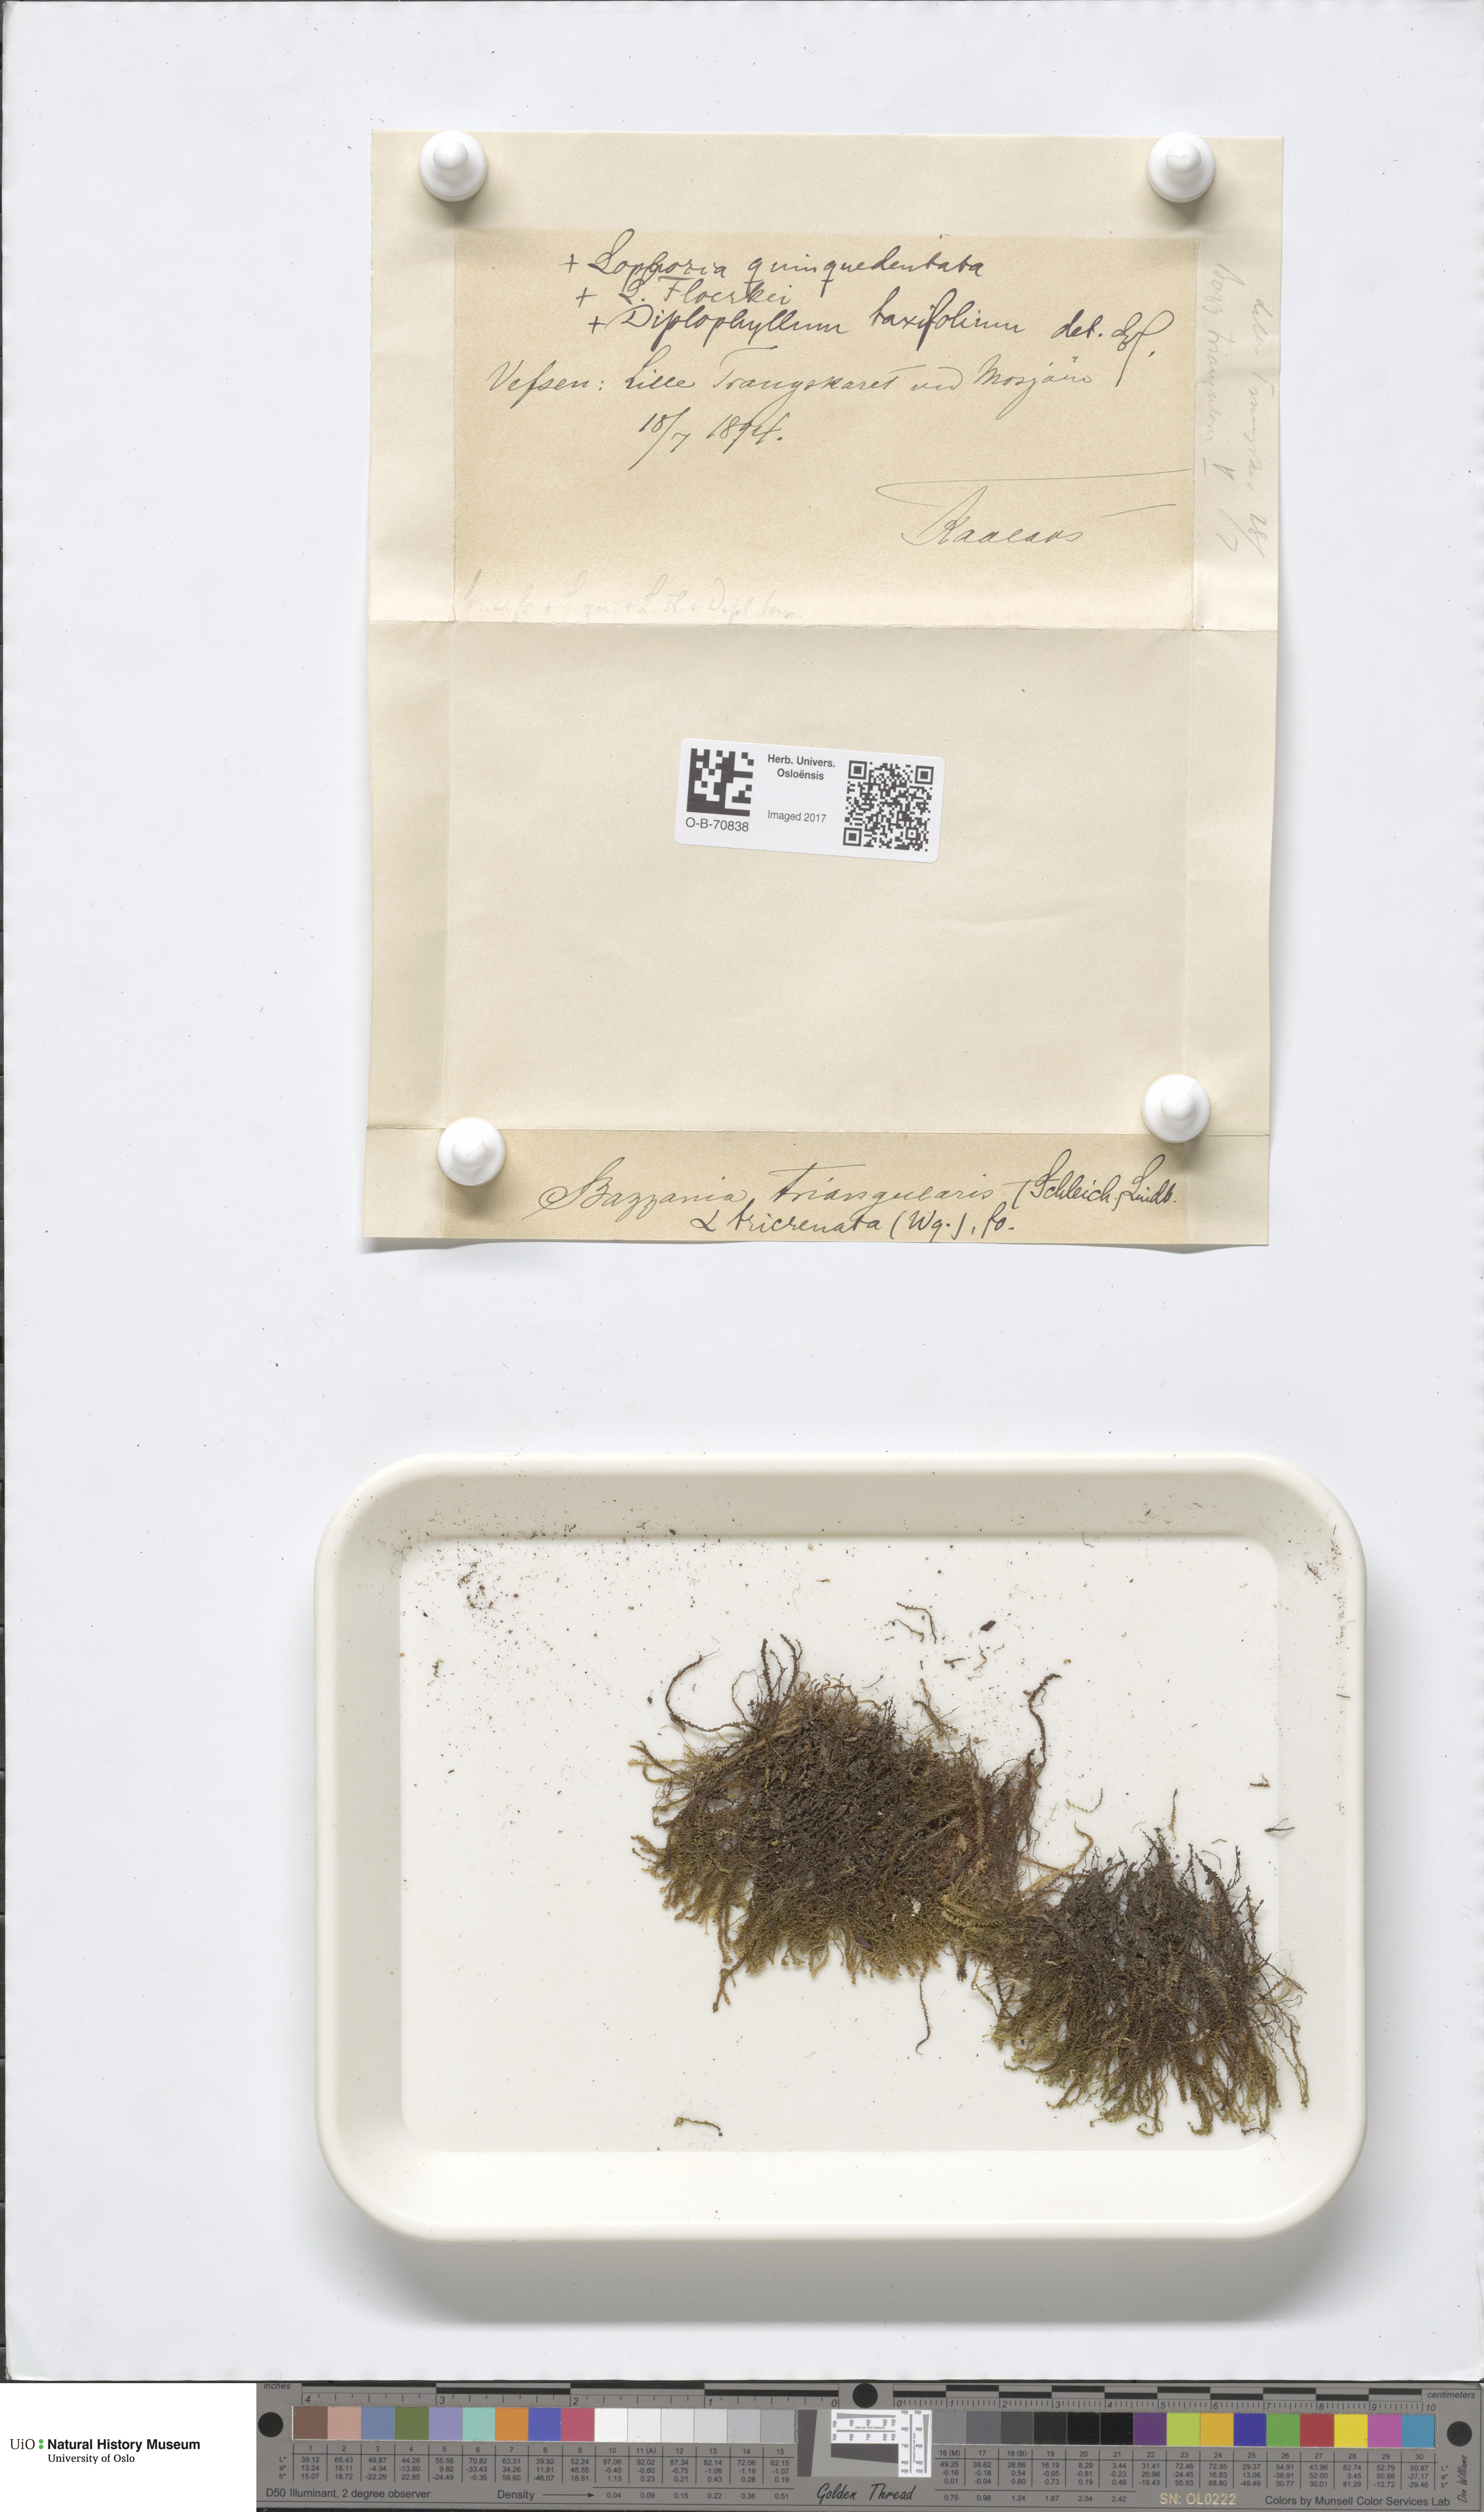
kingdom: Plantae
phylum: Marchantiophyta
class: Jungermanniopsida
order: Jungermanniales
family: Lepidoziaceae
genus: Bazzania
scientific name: Bazzania tricrenata
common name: Lesser whipwort
